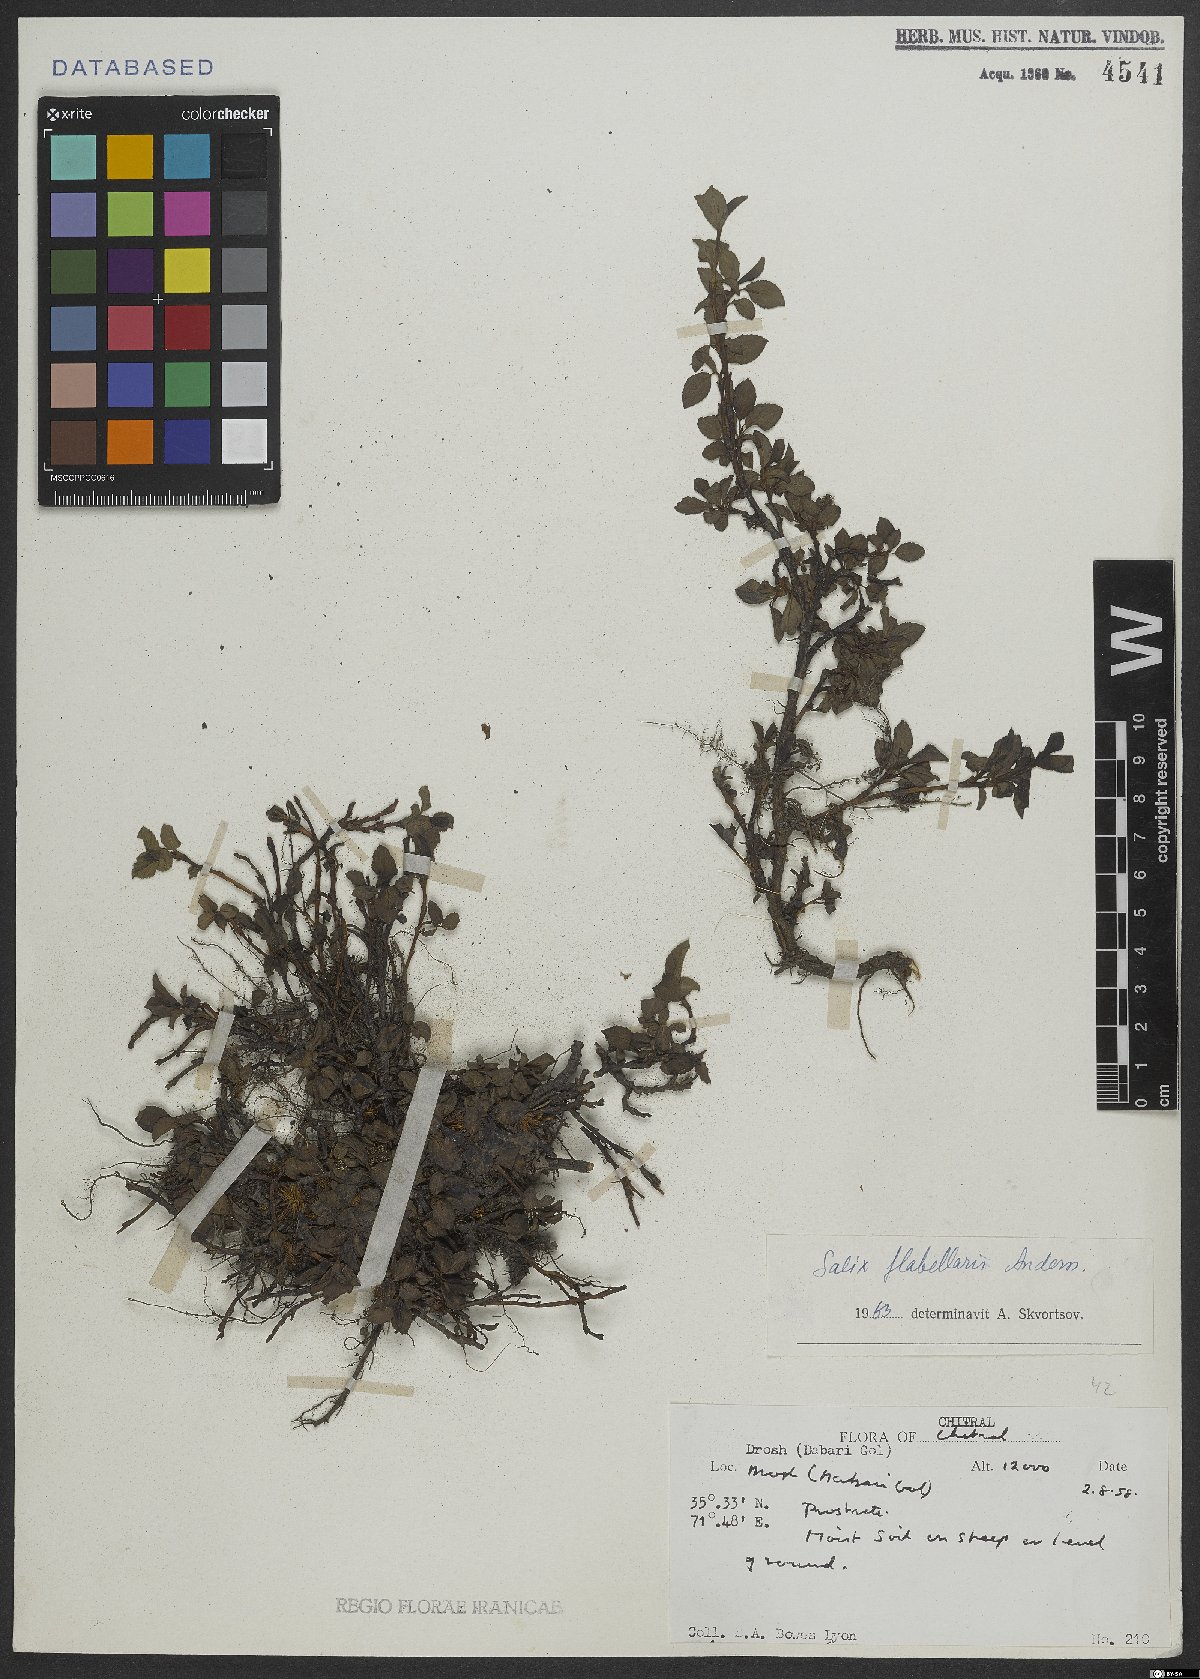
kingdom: Plantae
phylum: Tracheophyta
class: Magnoliopsida
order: Malpighiales
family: Salicaceae
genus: Salix
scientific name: Salix flabellaris
